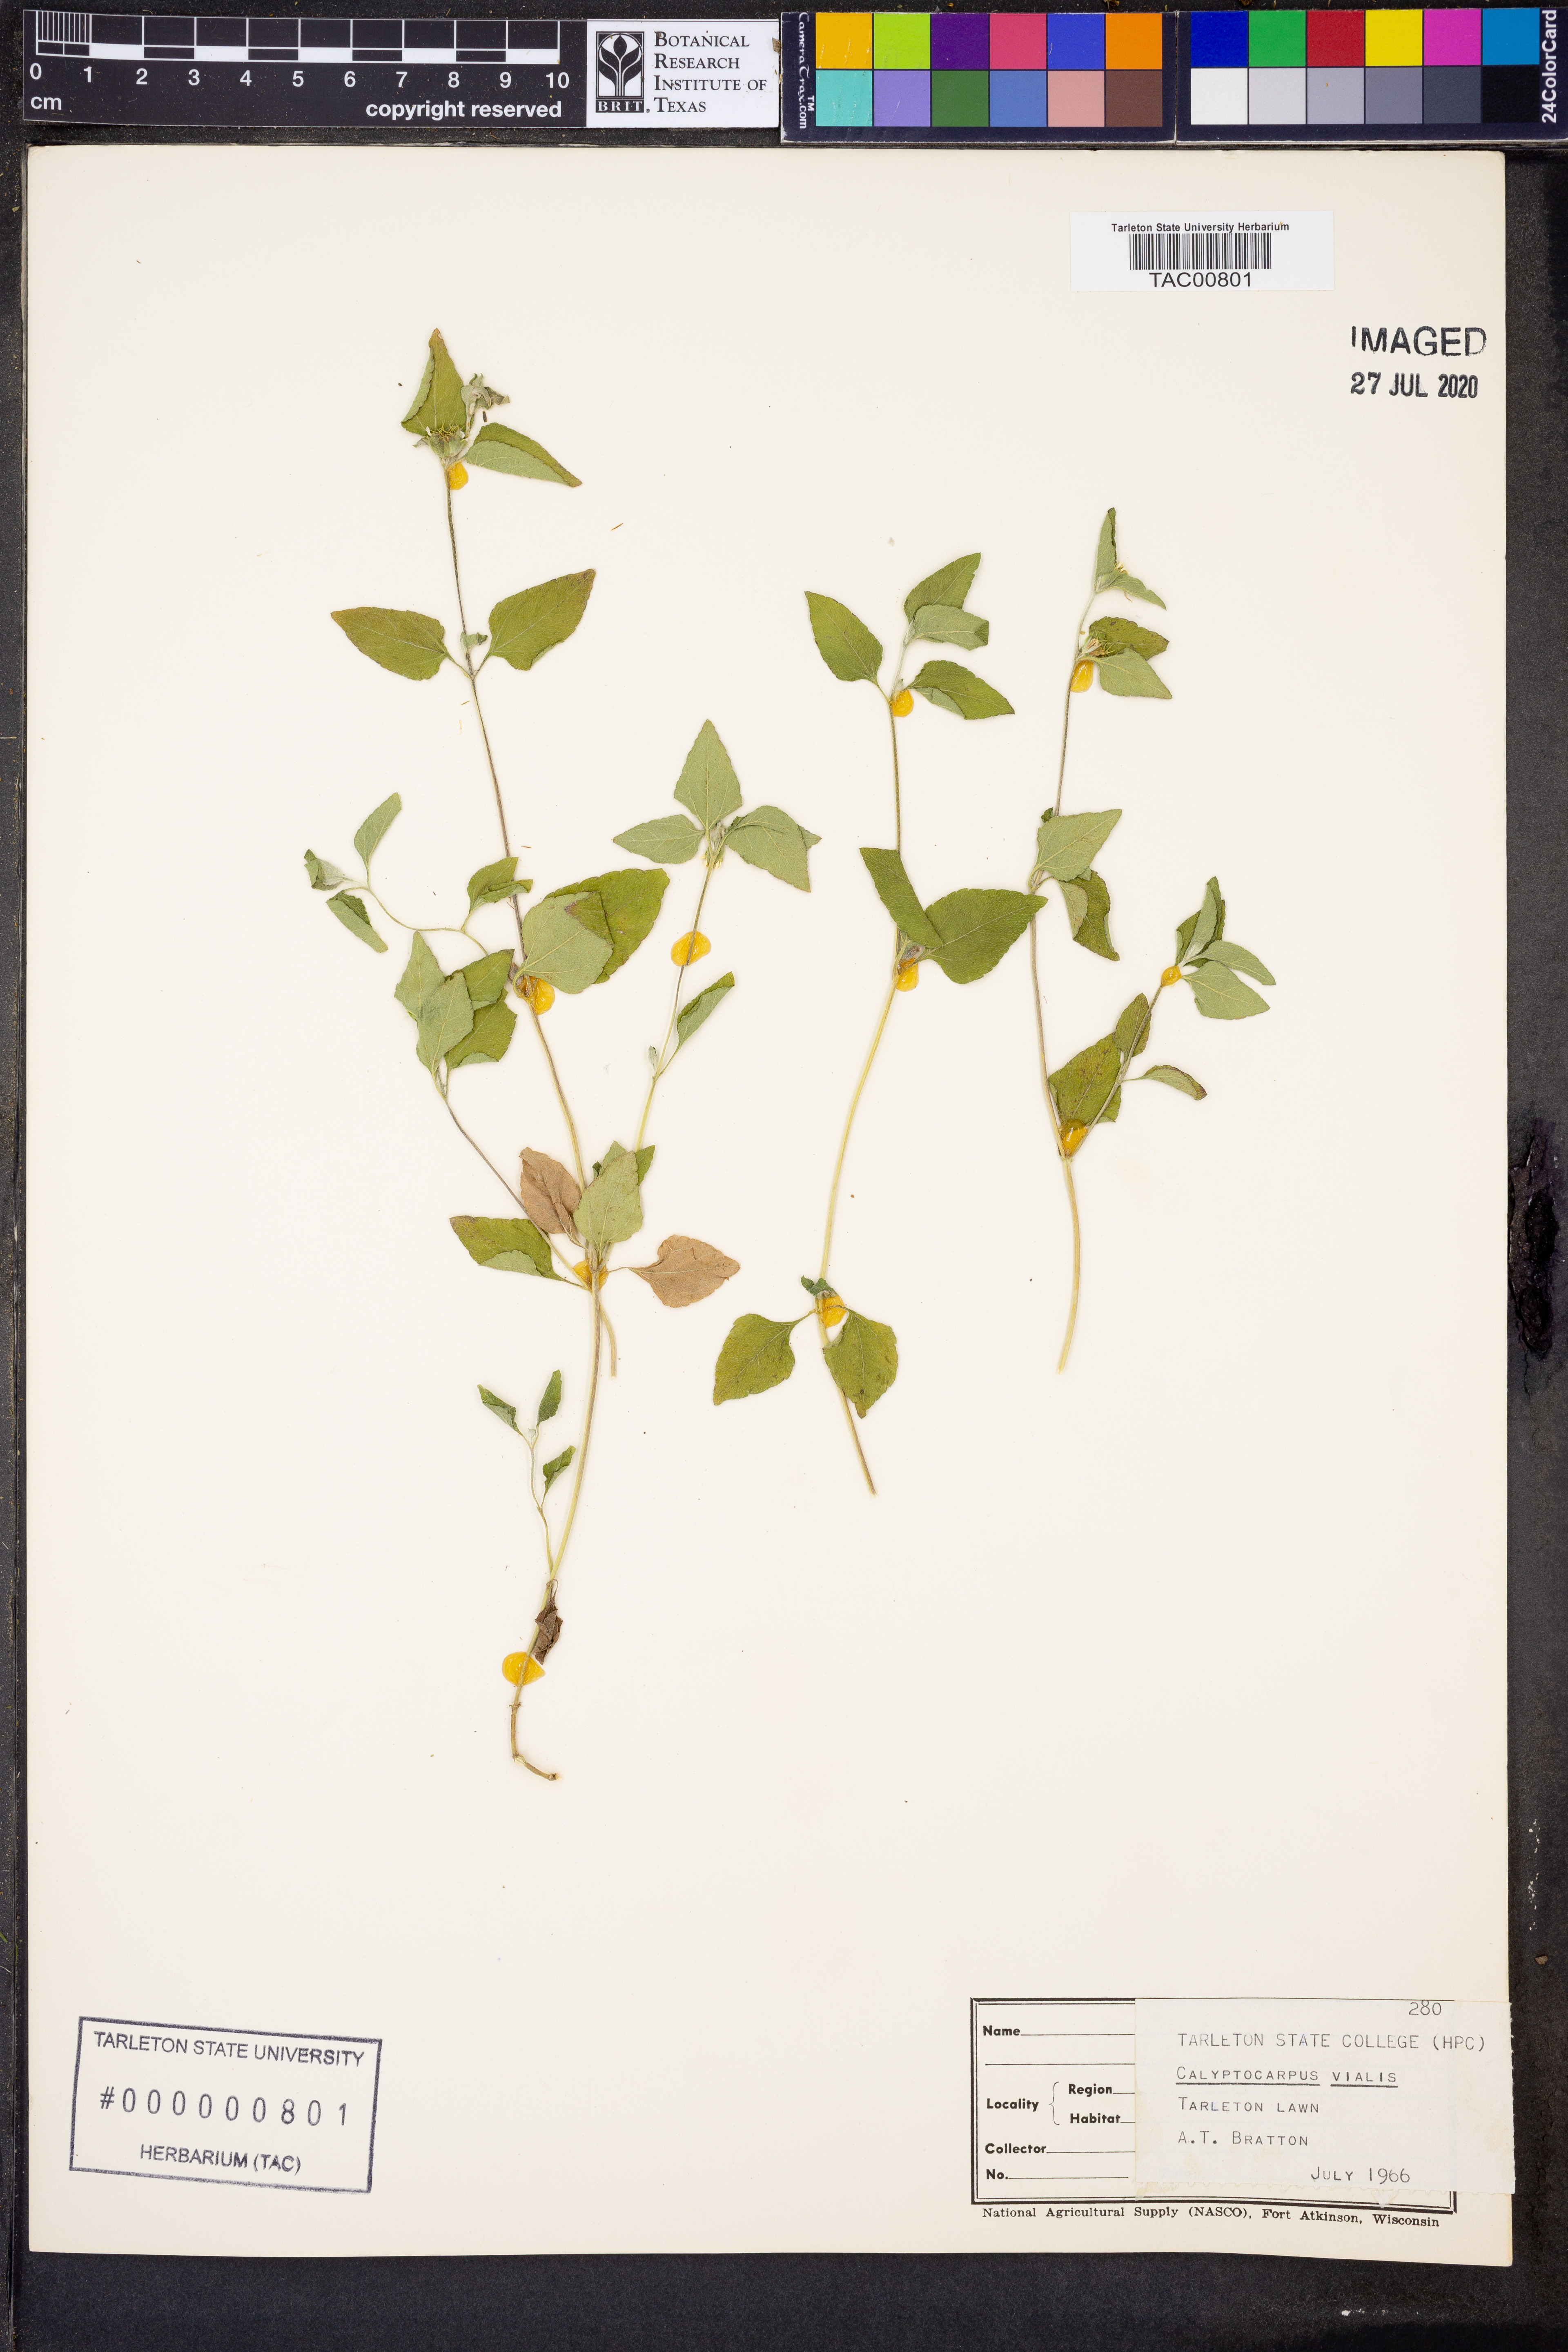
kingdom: Plantae
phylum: Tracheophyta
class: Magnoliopsida
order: Asterales
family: Asteraceae
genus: Calyptocarpus
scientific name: Calyptocarpus vialis
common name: Straggler daisy
